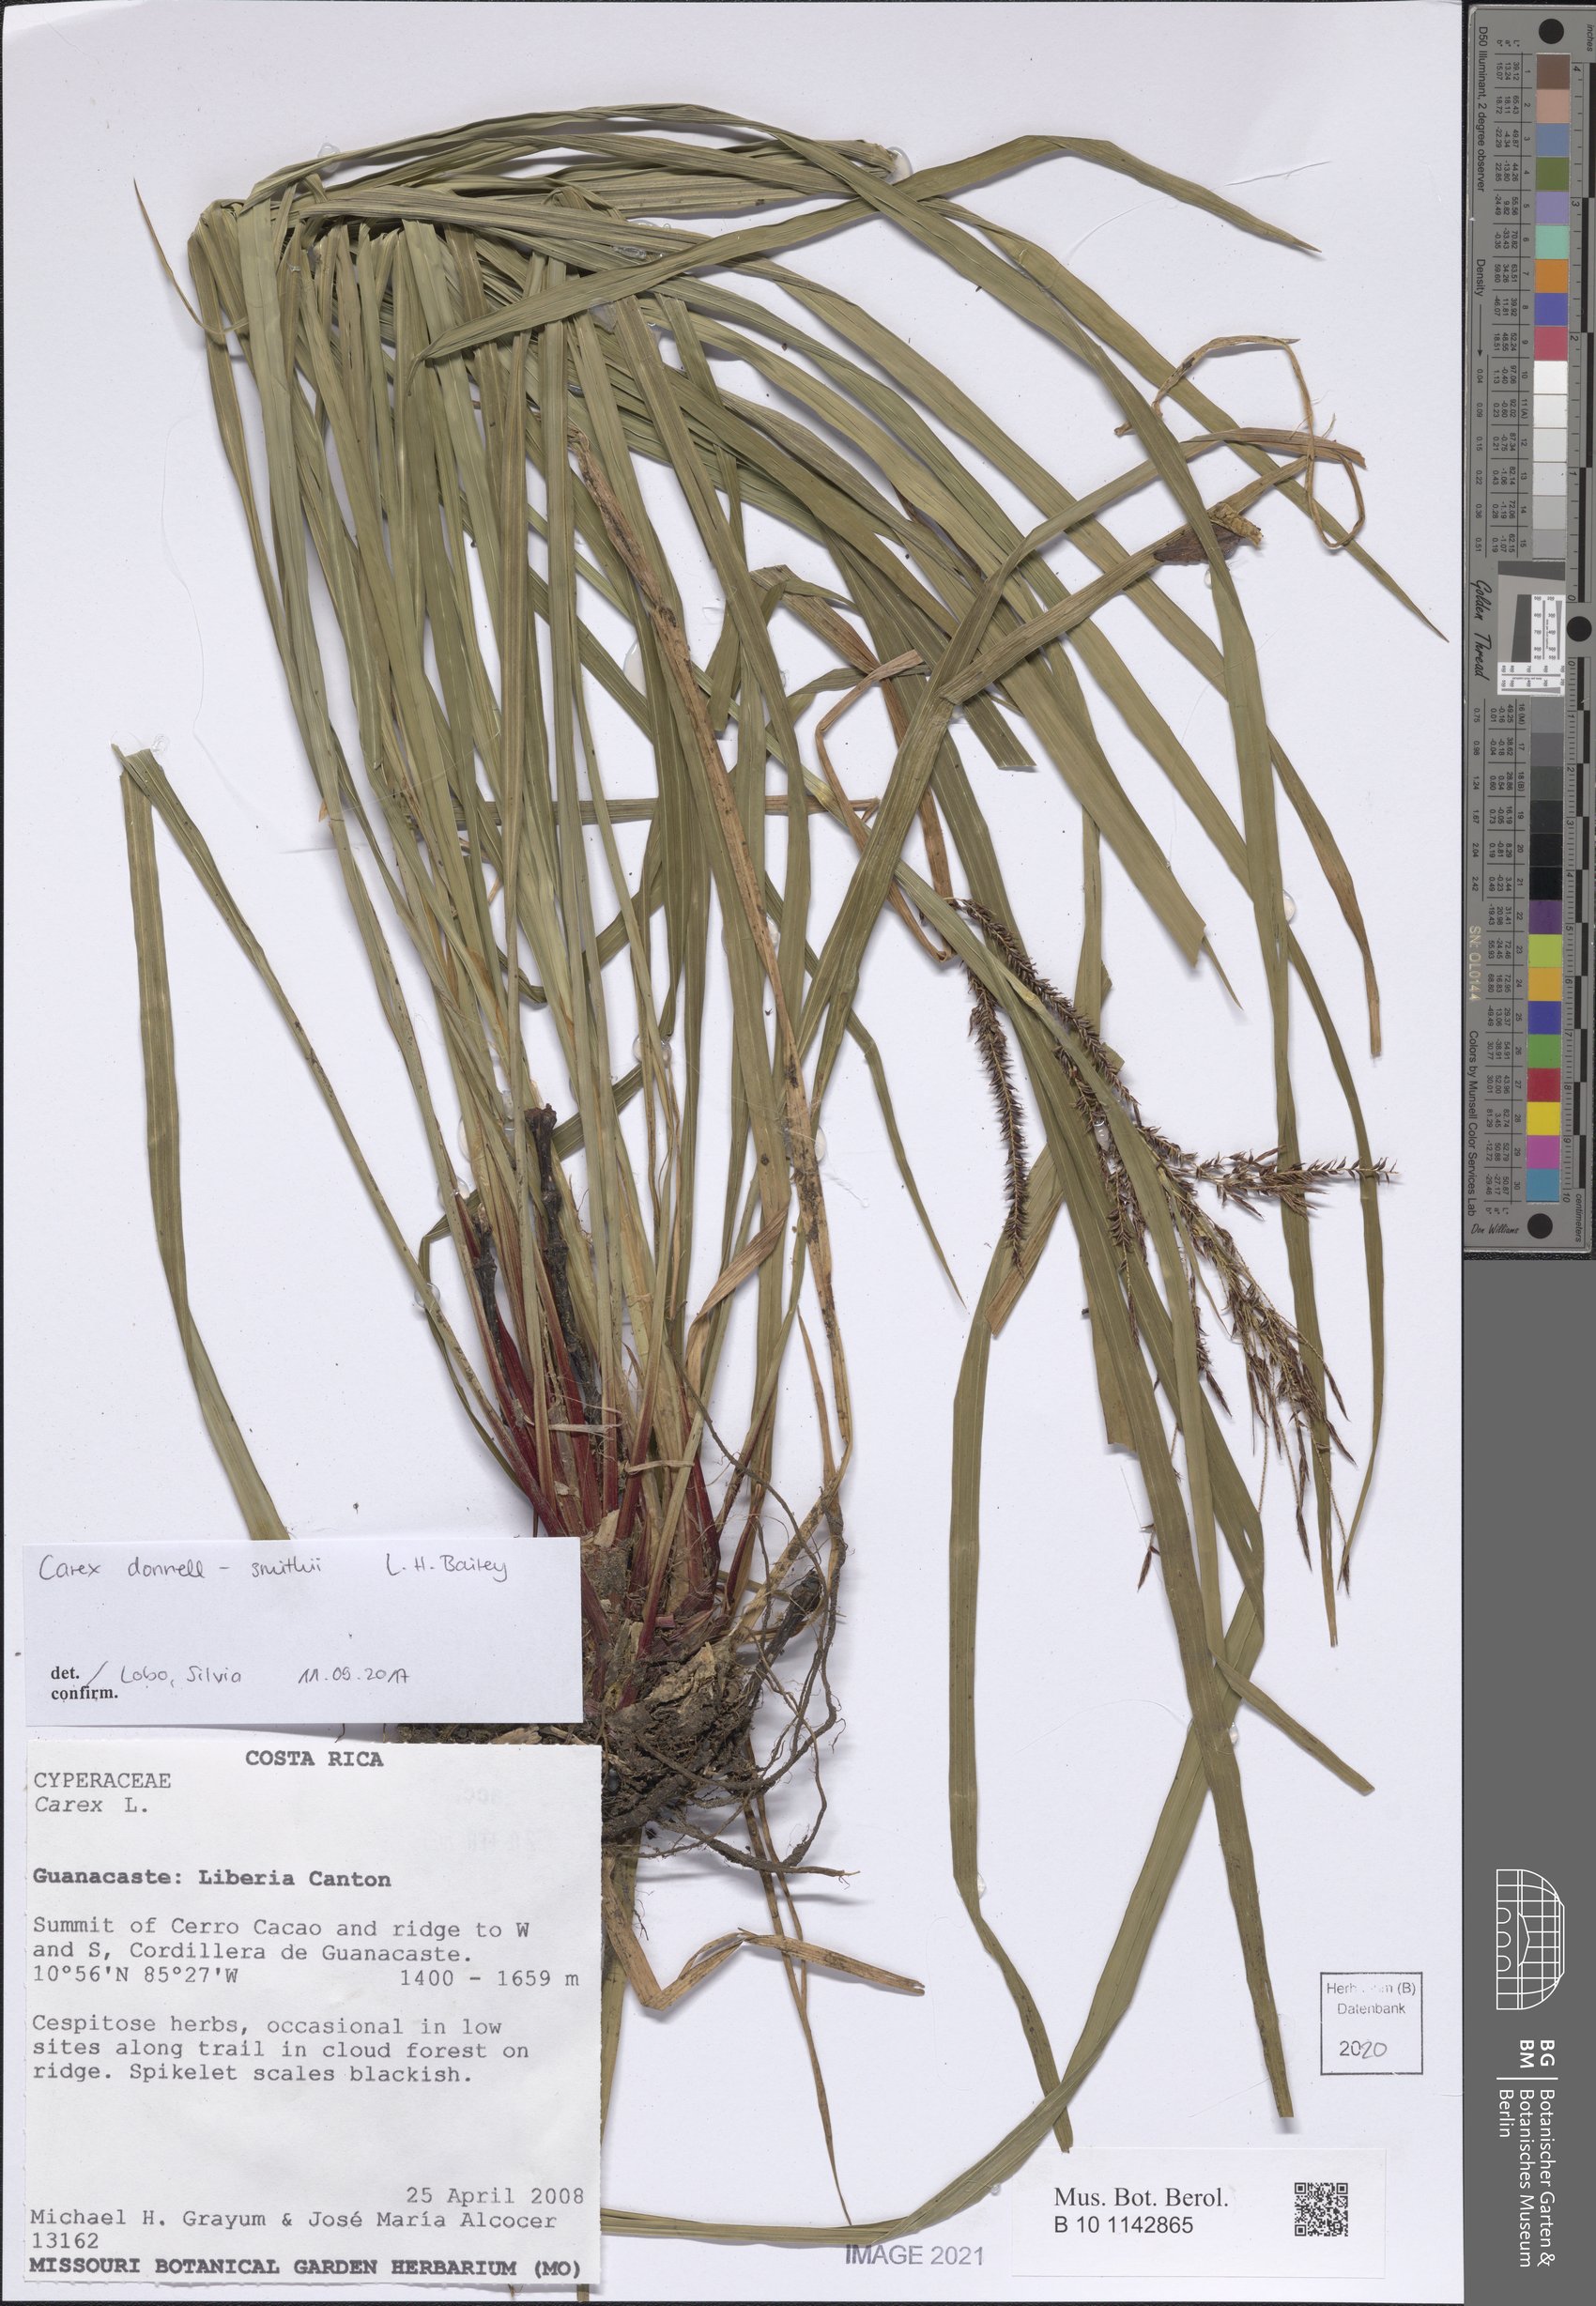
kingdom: Plantae
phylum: Tracheophyta
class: Liliopsida
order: Poales
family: Cyperaceae
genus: Carex
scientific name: Carex donnell-smithii
